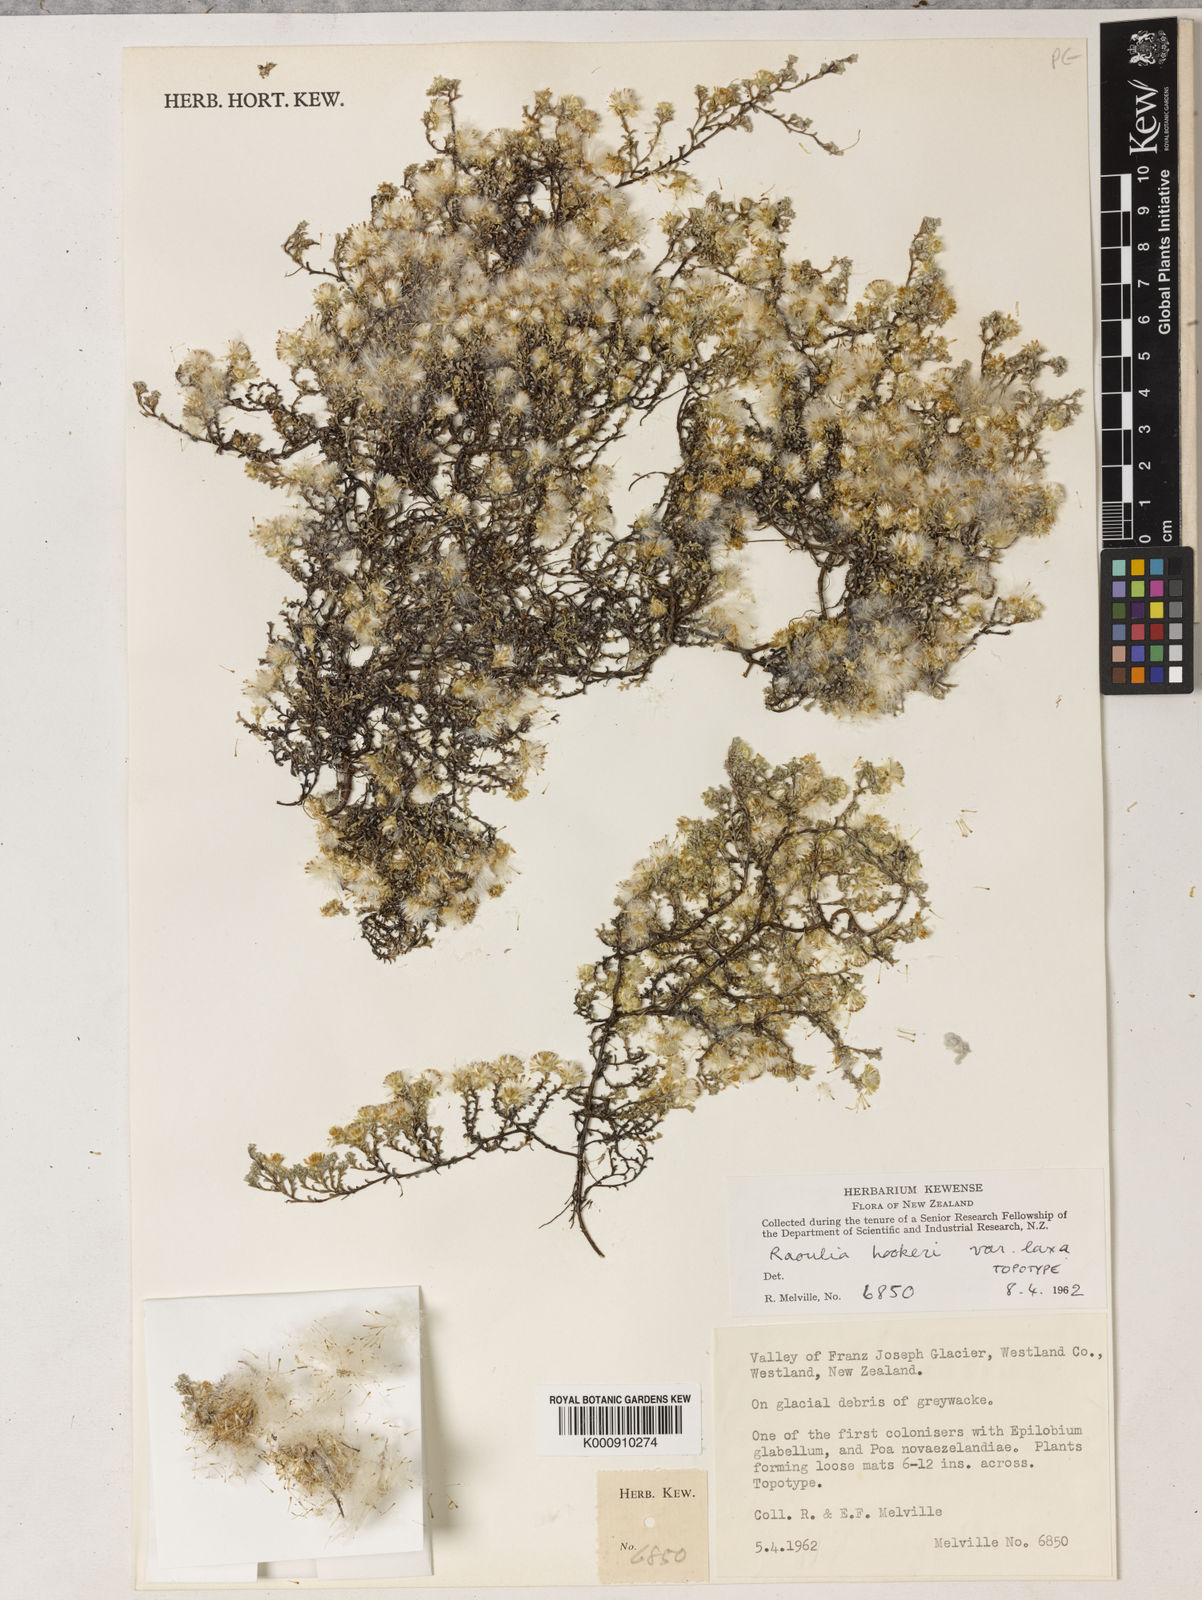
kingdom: Plantae
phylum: Tracheophyta
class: Magnoliopsida
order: Asterales
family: Asteraceae
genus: Raoulia
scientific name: Raoulia hookeri
